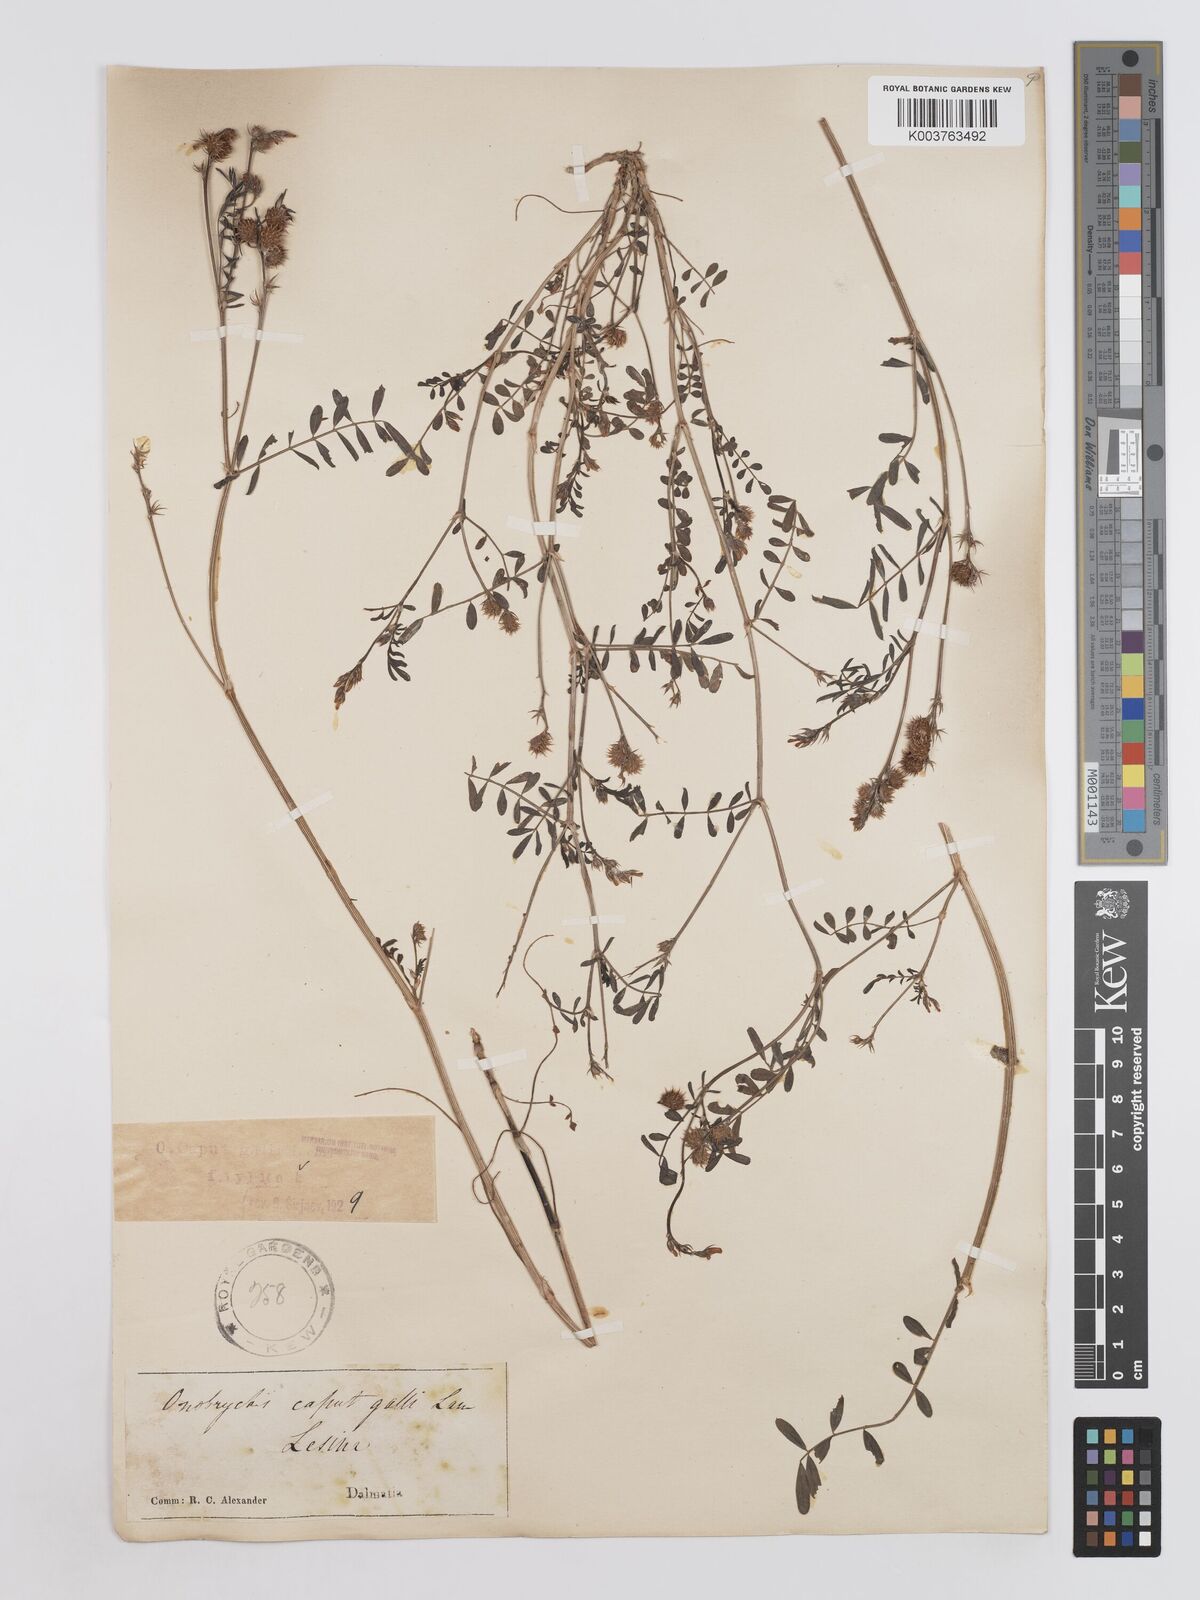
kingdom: Plantae
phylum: Tracheophyta
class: Magnoliopsida
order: Fabales
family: Fabaceae
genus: Onobrychis
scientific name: Onobrychis caput-galli
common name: Cockscomb sainfoin
